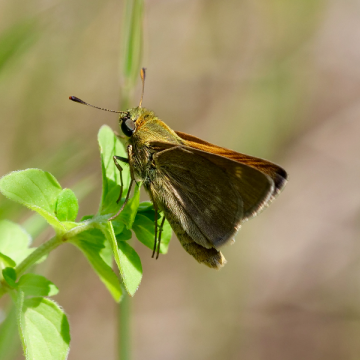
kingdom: Animalia
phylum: Arthropoda
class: Insecta
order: Lepidoptera
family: Hesperiidae
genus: Polites
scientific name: Polites
